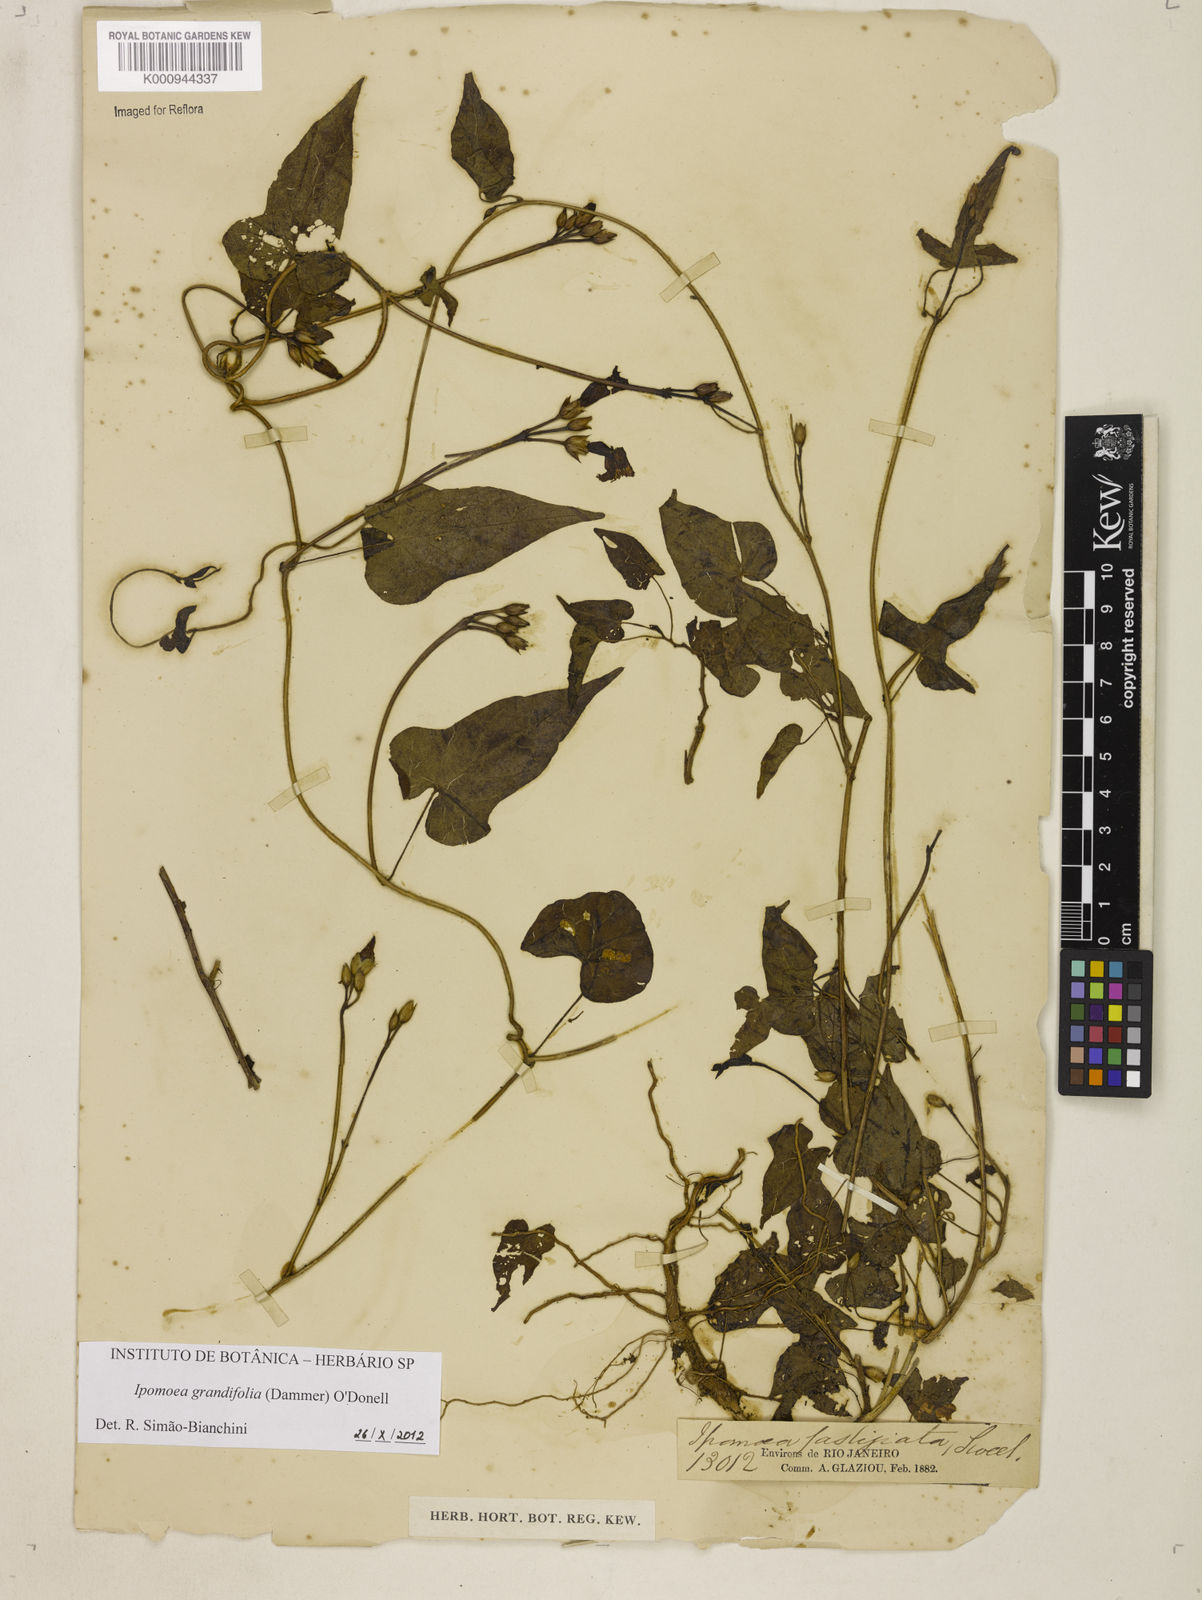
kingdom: Plantae
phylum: Tracheophyta
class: Magnoliopsida
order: Solanales
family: Convolvulaceae
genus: Ipomoea
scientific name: Ipomoea grandifolia
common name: Aiea morning glory
